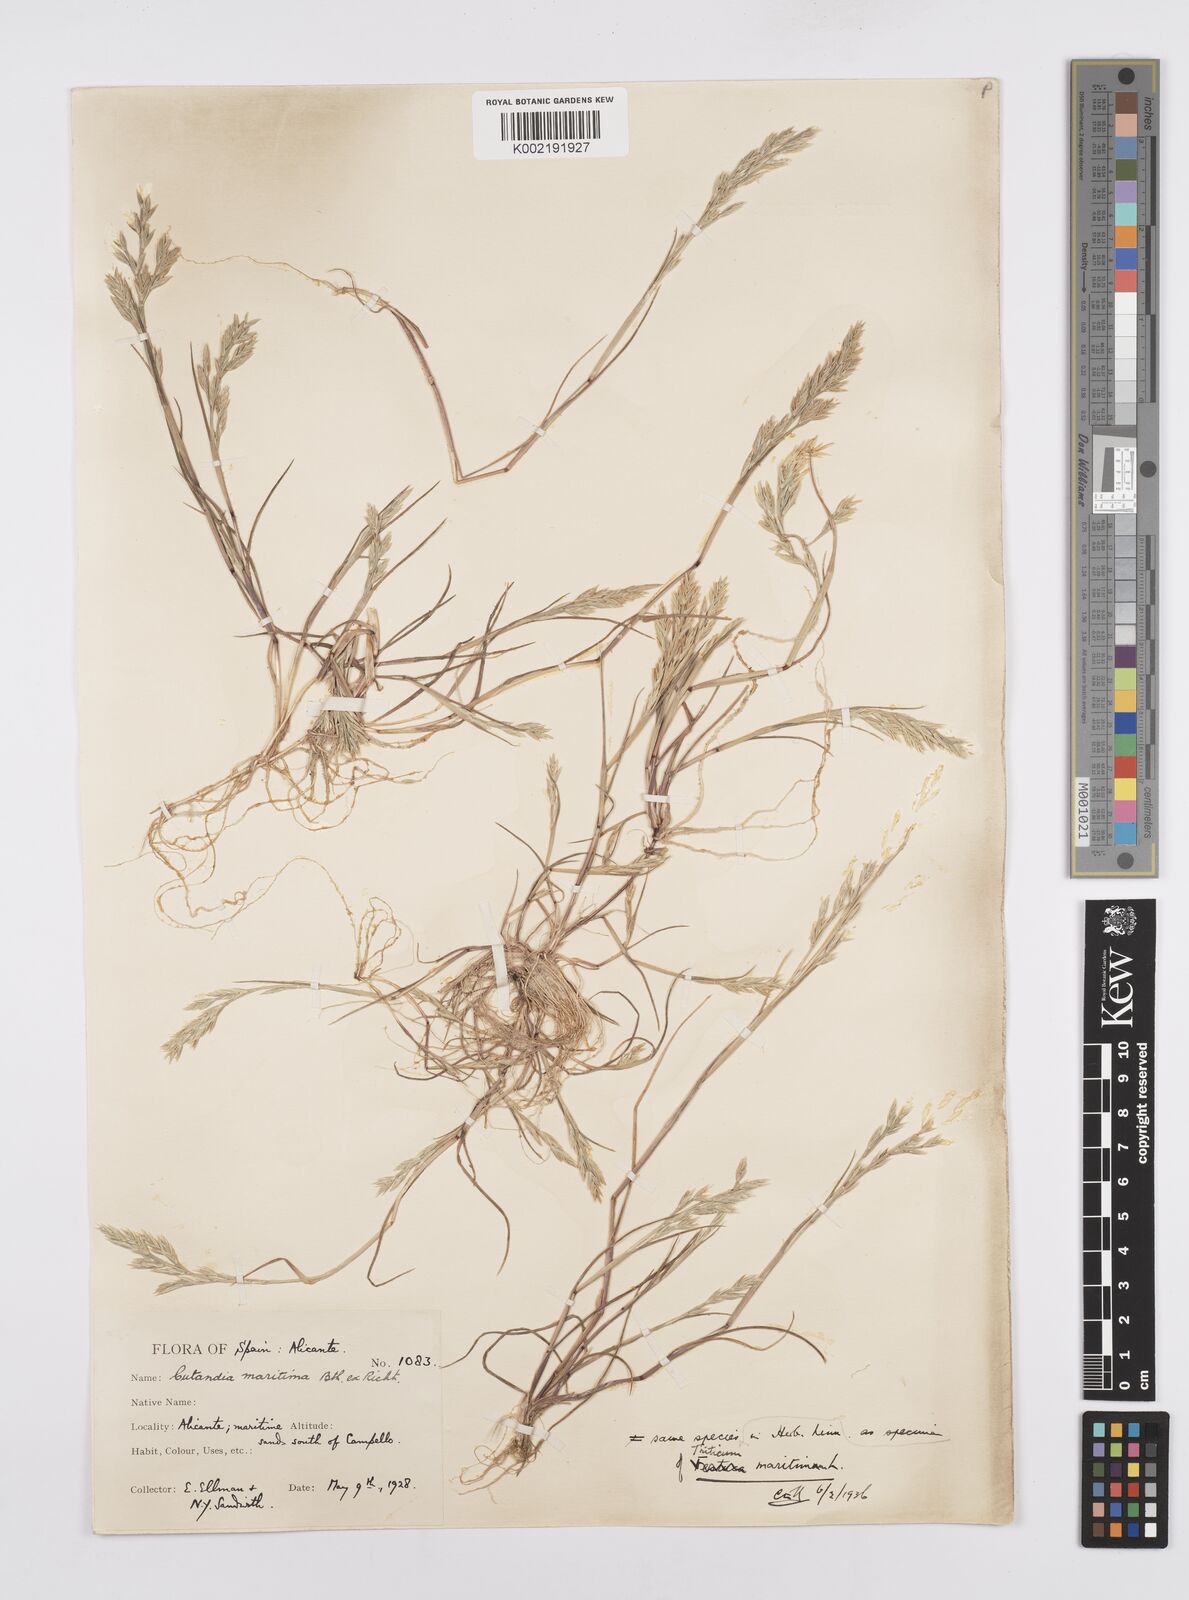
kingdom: Plantae
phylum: Tracheophyta
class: Liliopsida
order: Poales
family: Poaceae
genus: Cutandia
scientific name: Cutandia maritima
